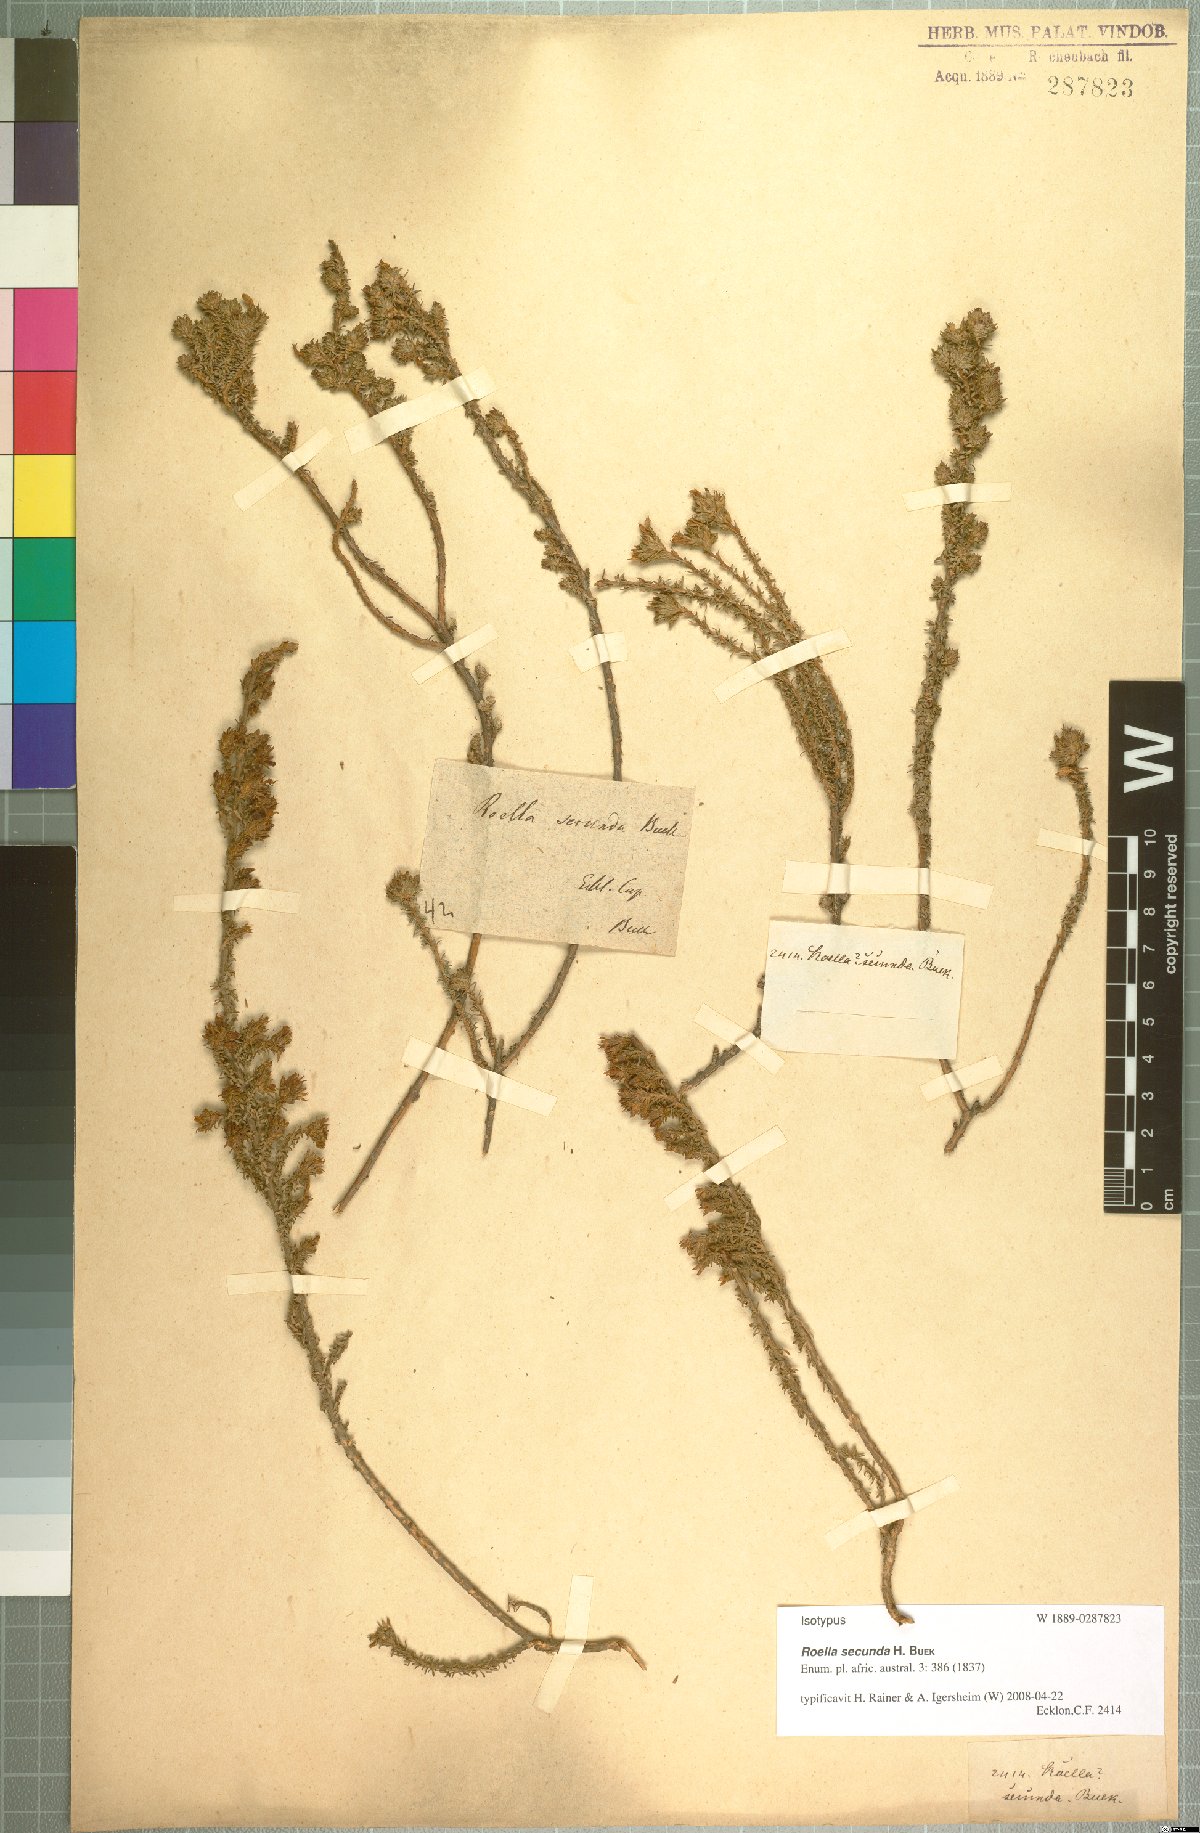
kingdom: Plantae
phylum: Tracheophyta
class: Magnoliopsida
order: Asterales
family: Campanulaceae
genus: Roella
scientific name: Roella secunda
